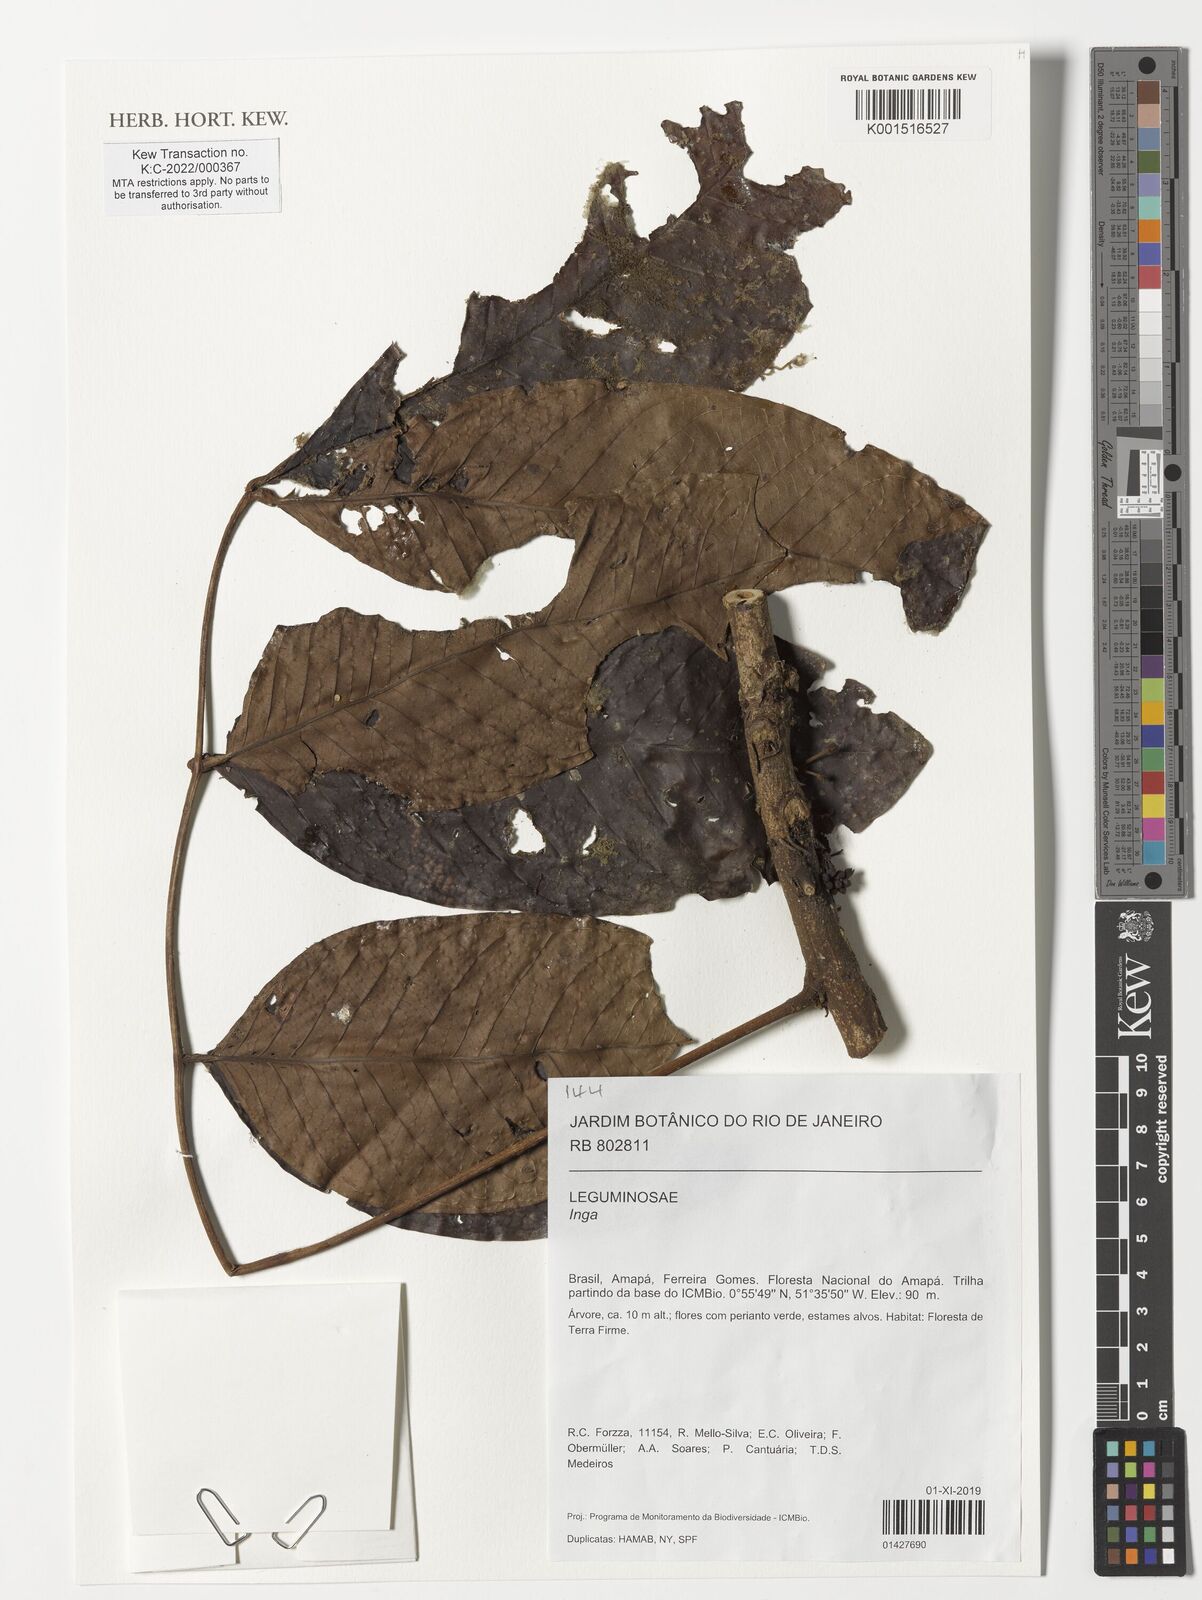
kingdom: Plantae
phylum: Tracheophyta
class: Magnoliopsida
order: Fabales
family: Fabaceae
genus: Inga
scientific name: Inga
